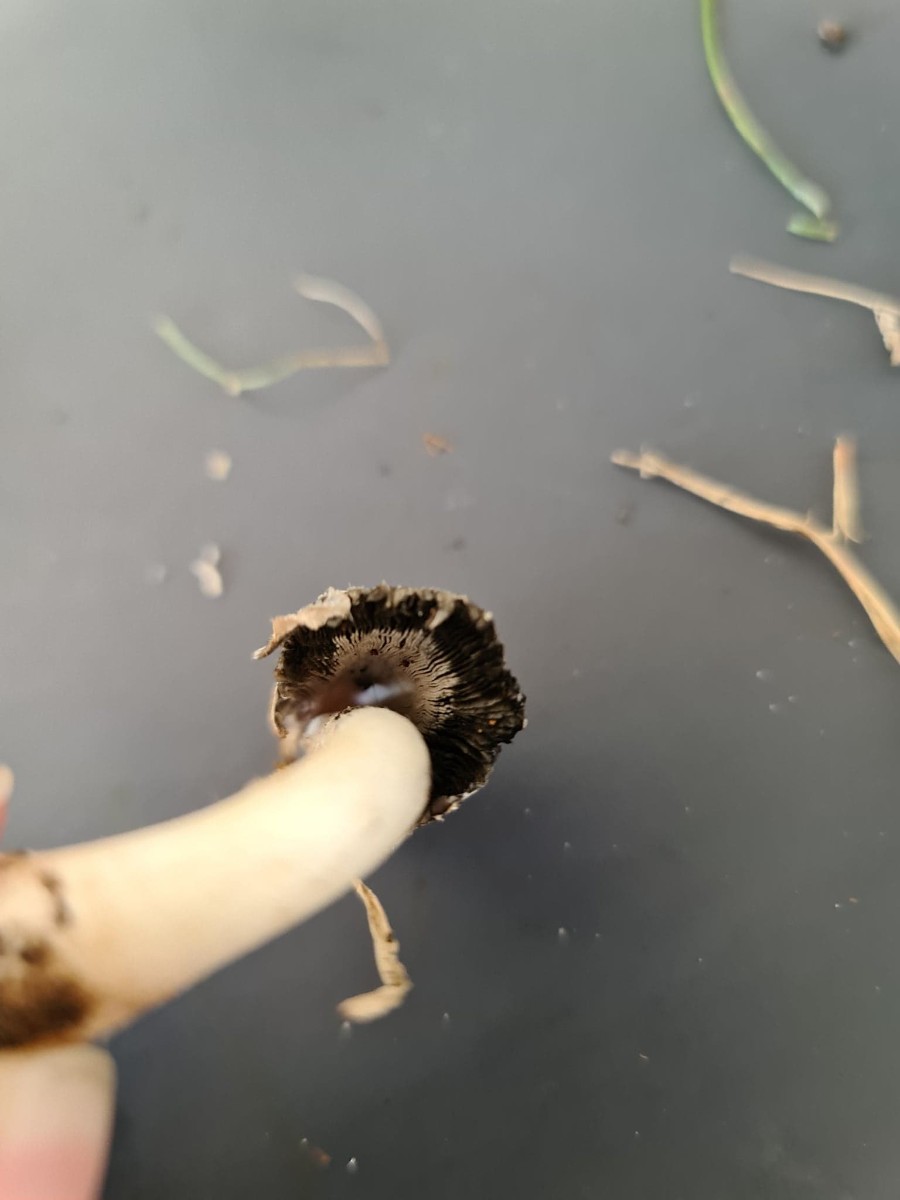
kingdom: Fungi
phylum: Basidiomycota
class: Agaricomycetes
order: Agaricales
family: Agaricaceae
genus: Coprinus
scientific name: Coprinus comatus
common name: stor parykhat
